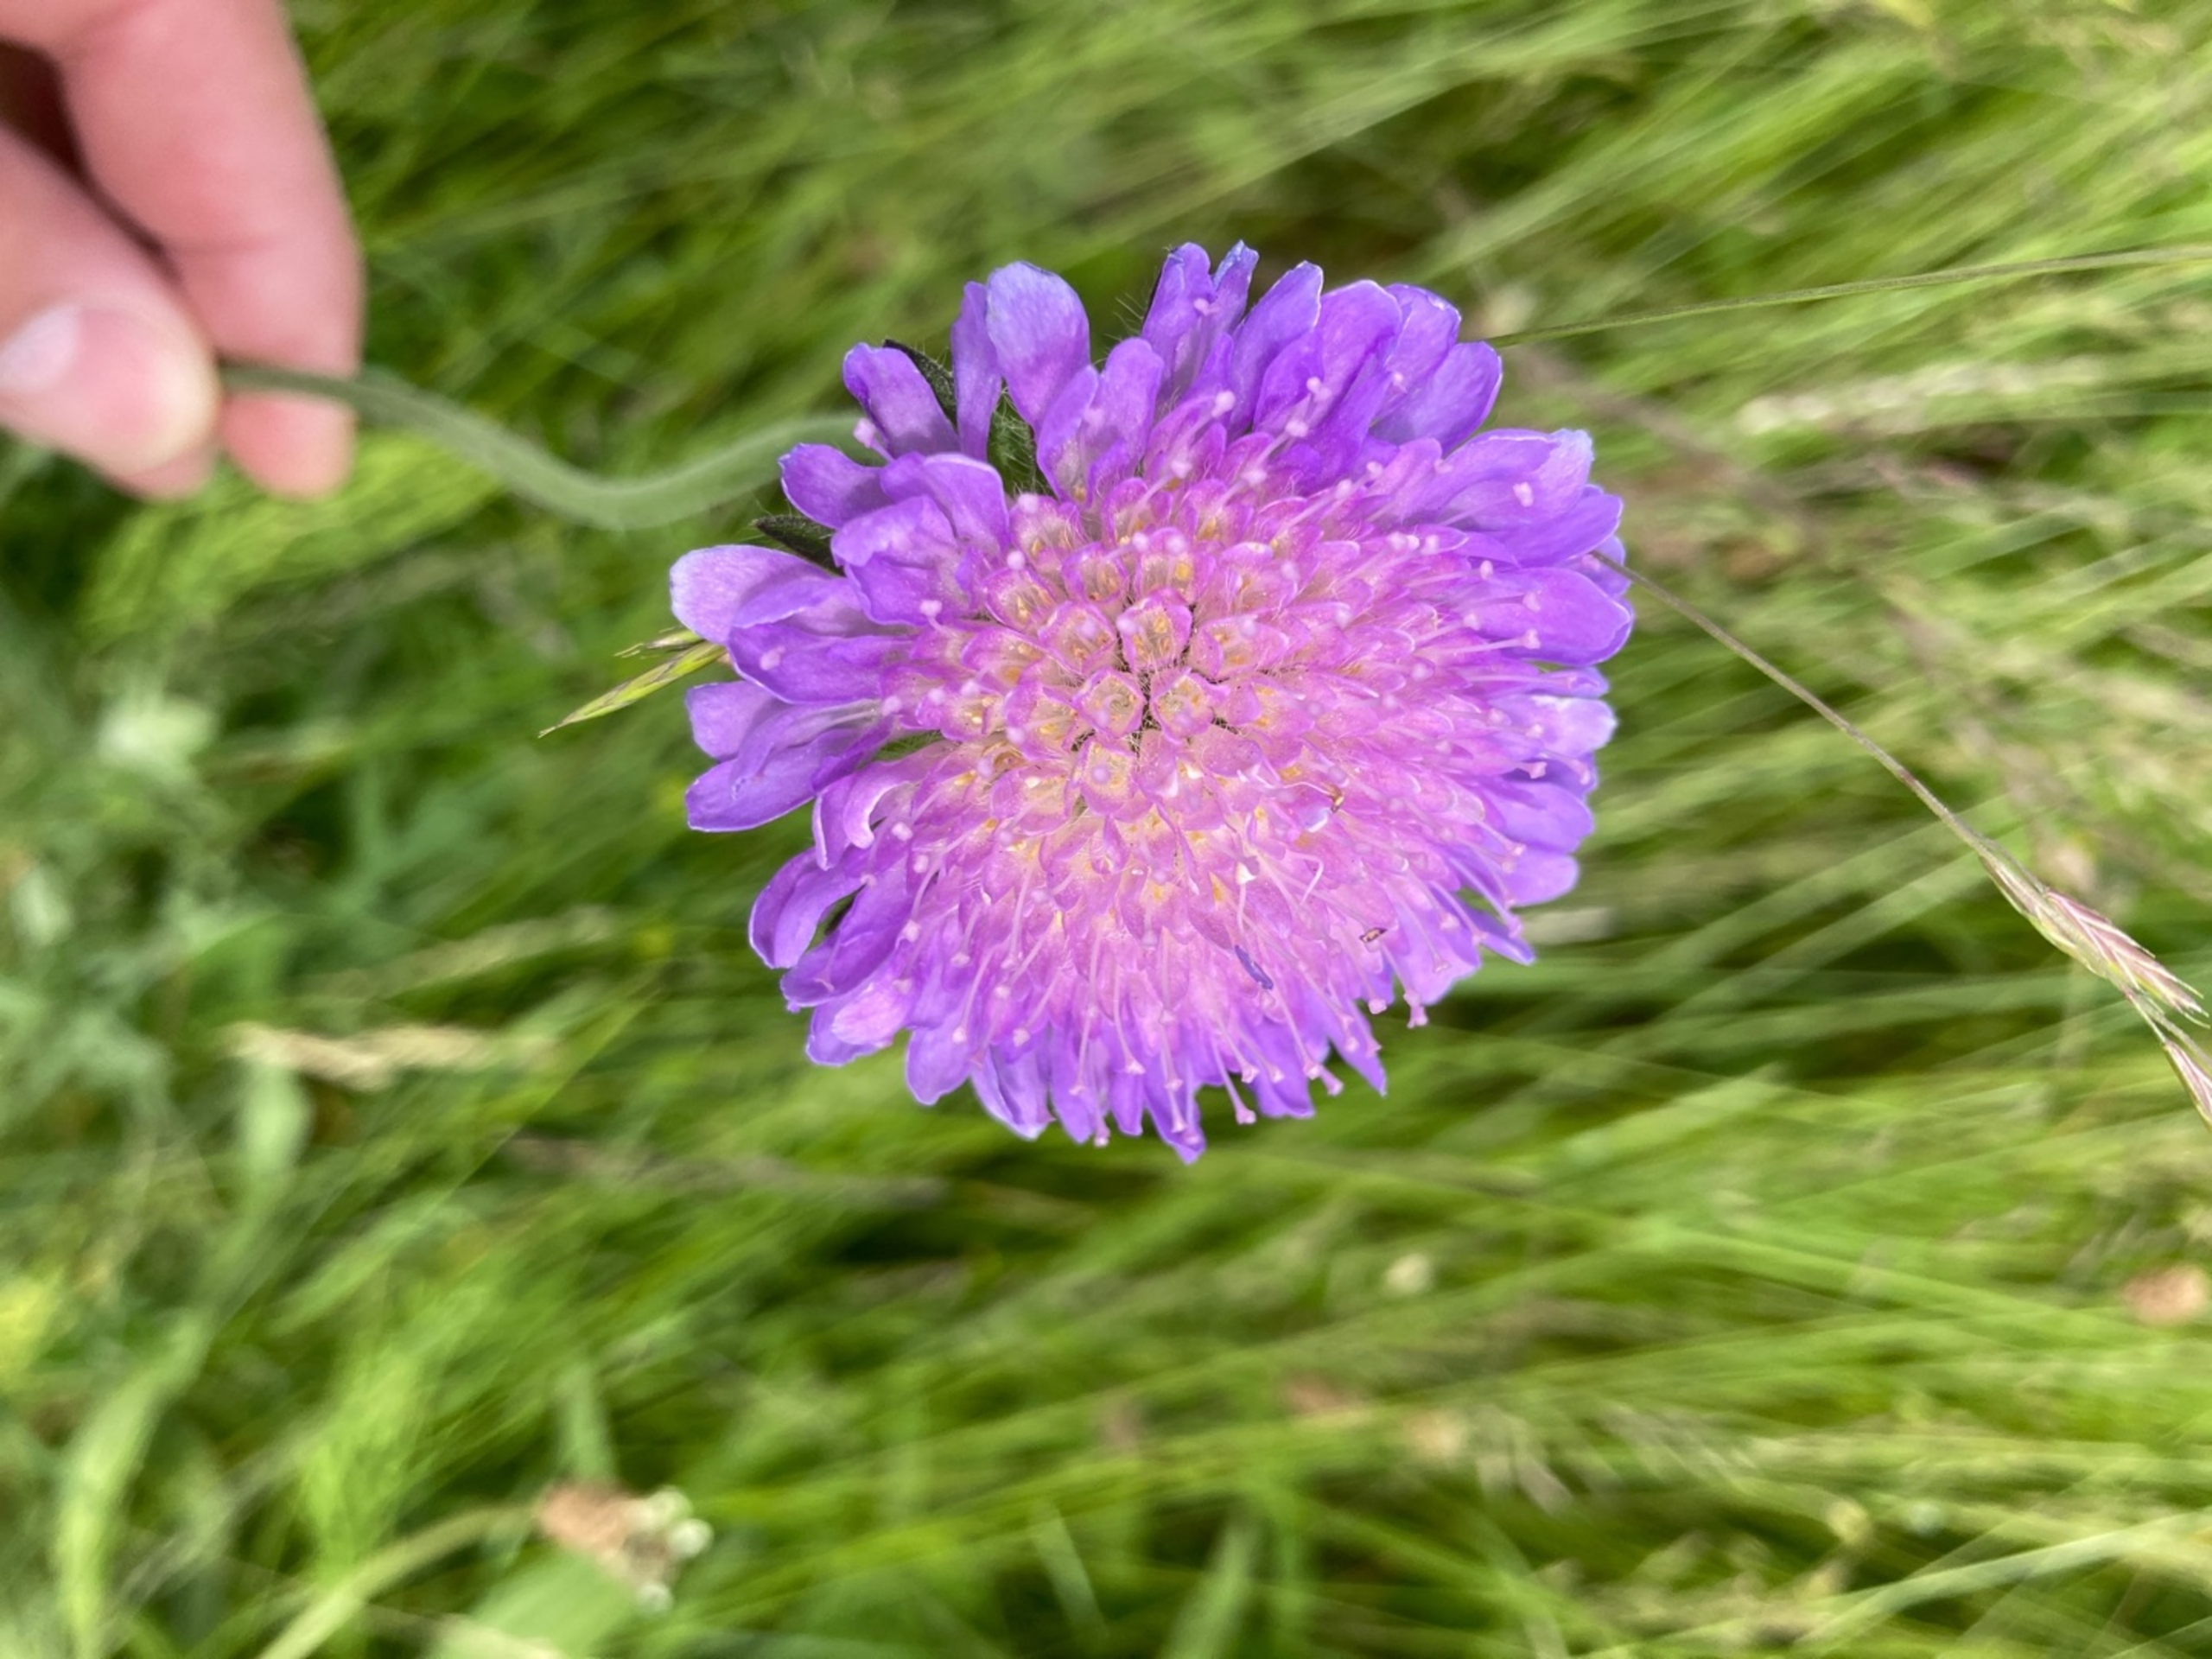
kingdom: Plantae
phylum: Tracheophyta
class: Magnoliopsida
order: Dipsacales
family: Caprifoliaceae
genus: Knautia
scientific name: Knautia arvensis
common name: Blåhat
